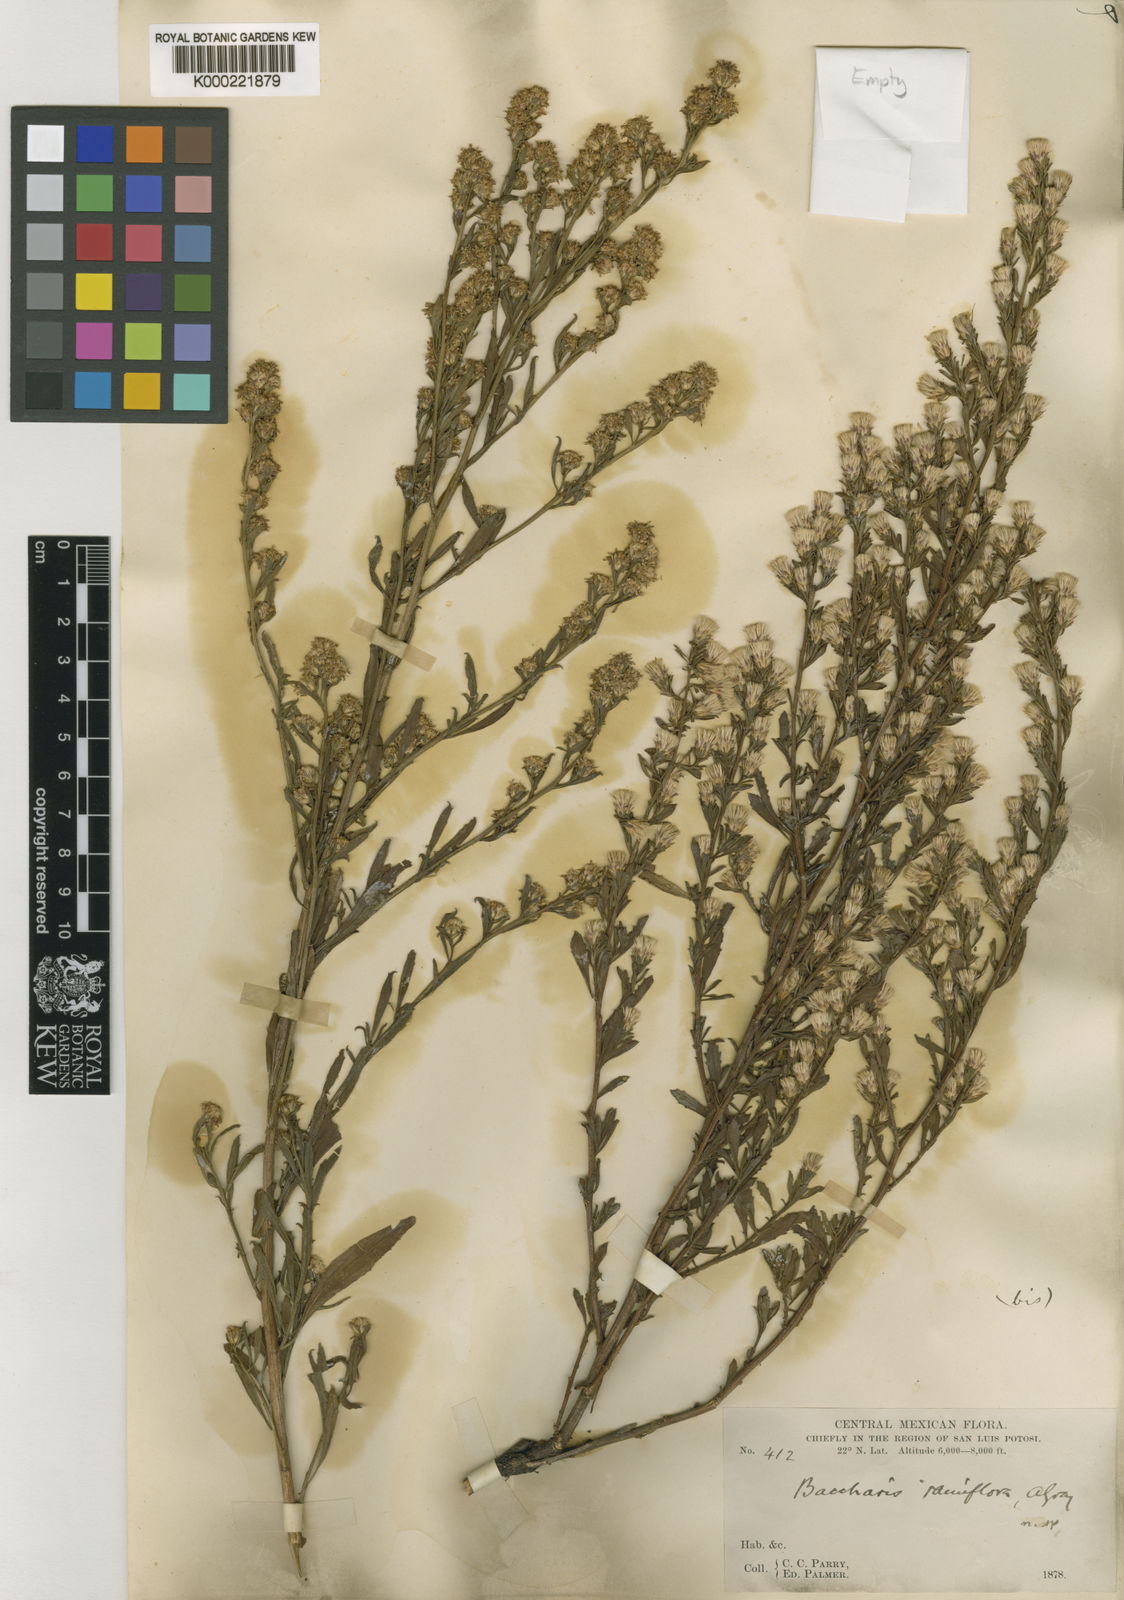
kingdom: Plantae
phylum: Tracheophyta
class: Magnoliopsida
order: Asterales
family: Asteraceae
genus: Baccharis
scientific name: Baccharis ramiflora
